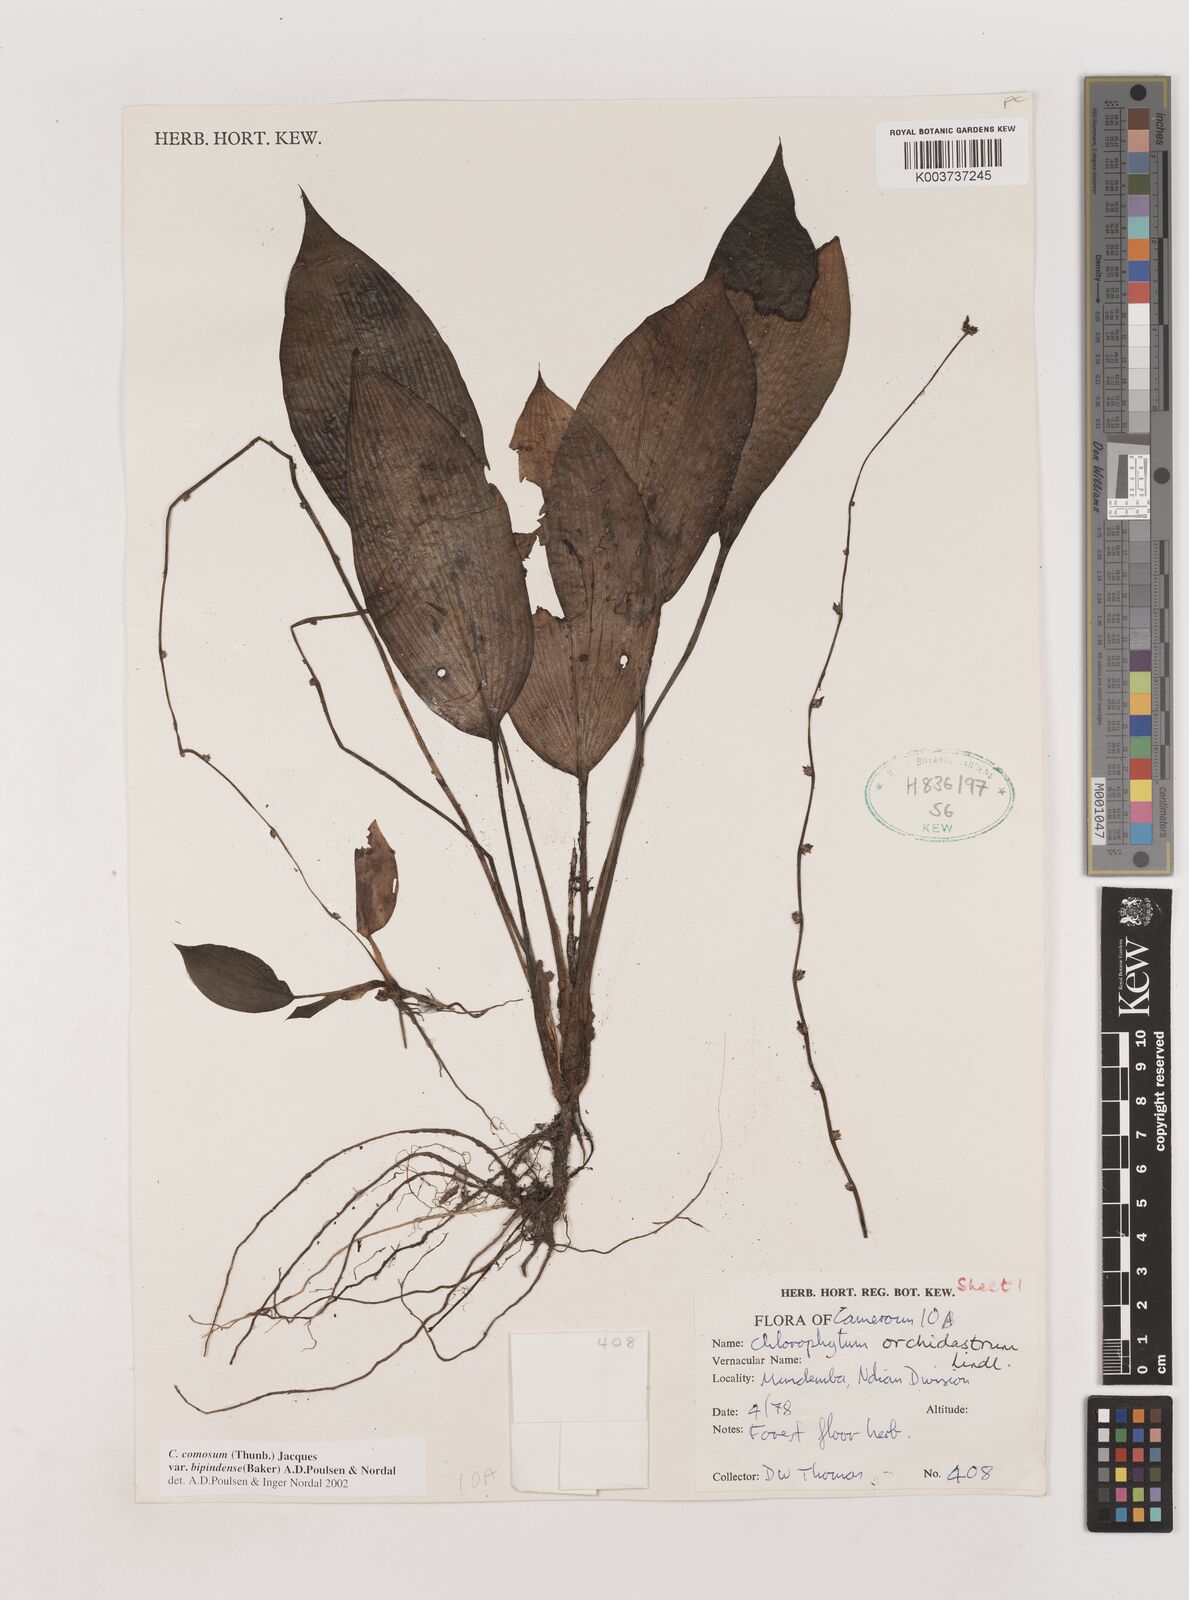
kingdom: Plantae
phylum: Tracheophyta
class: Liliopsida
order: Asparagales
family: Asparagaceae
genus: Chlorophytum
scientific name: Chlorophytum sparsiflorum
